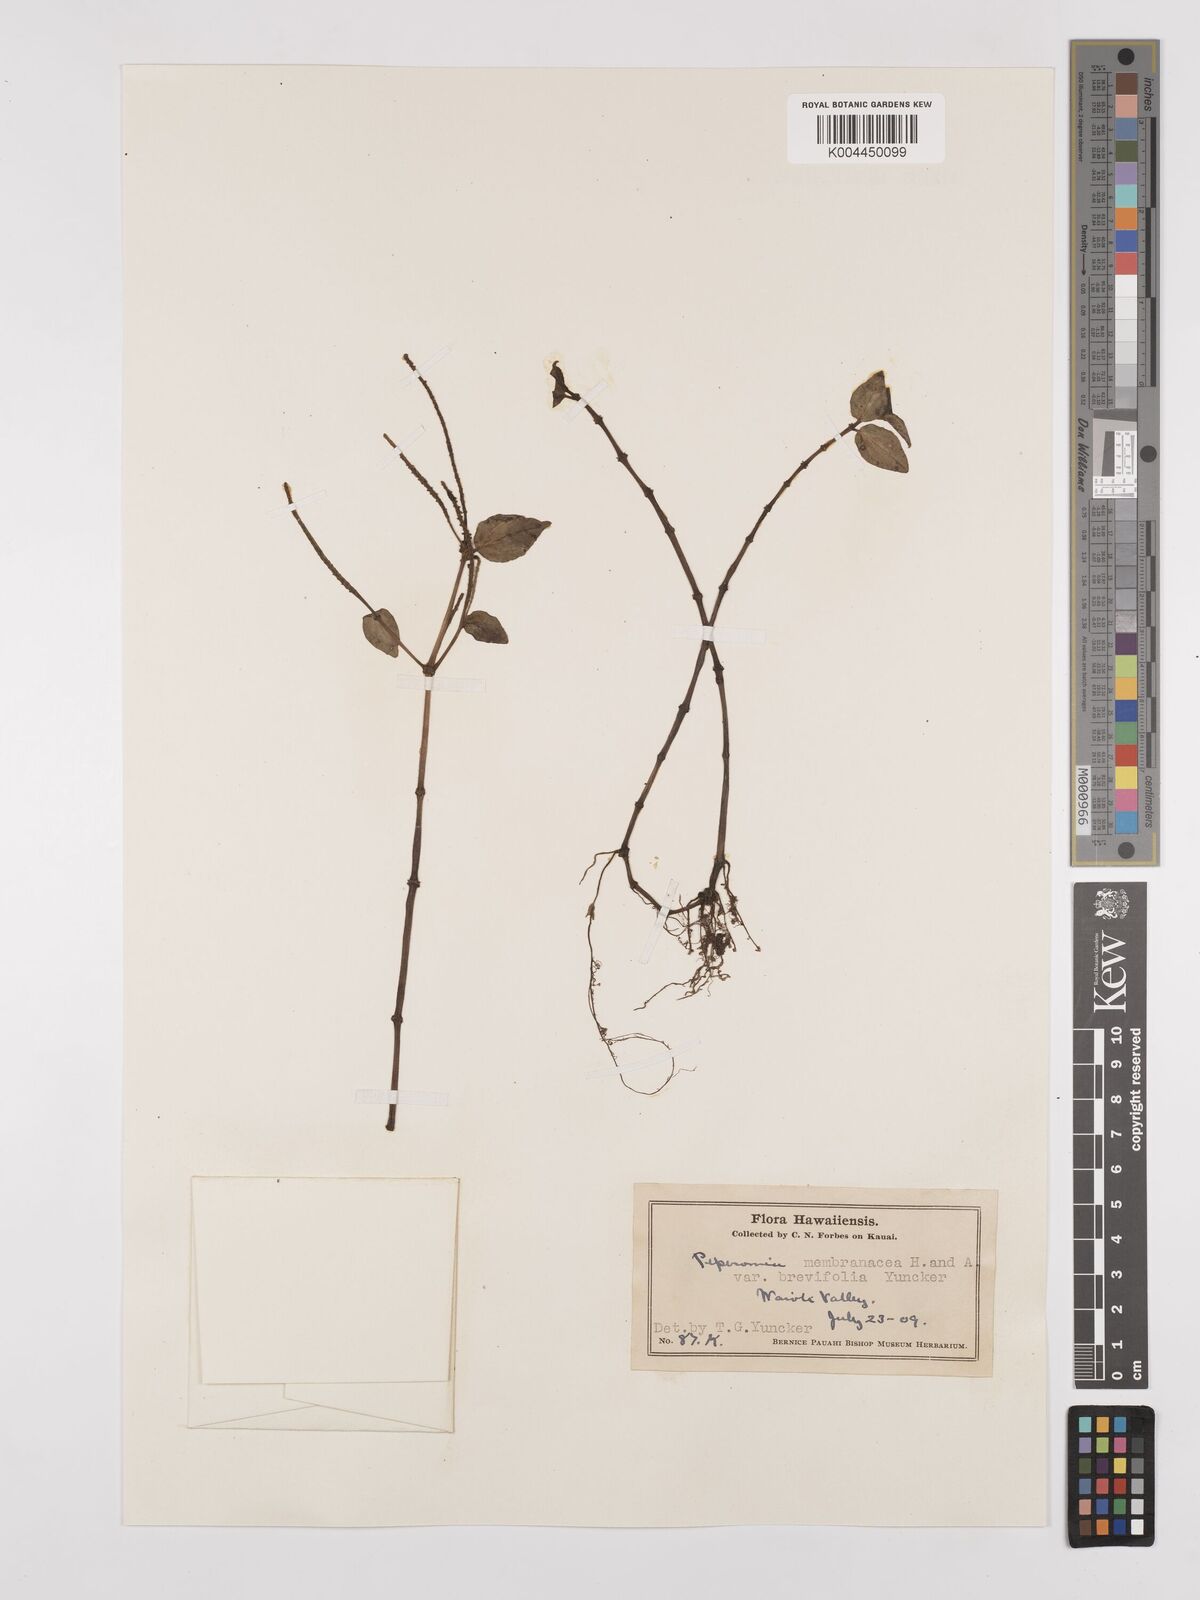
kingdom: Plantae
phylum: Tracheophyta
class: Magnoliopsida
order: Piperales
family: Piperaceae
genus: Peperomia
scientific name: Peperomia membranacea
